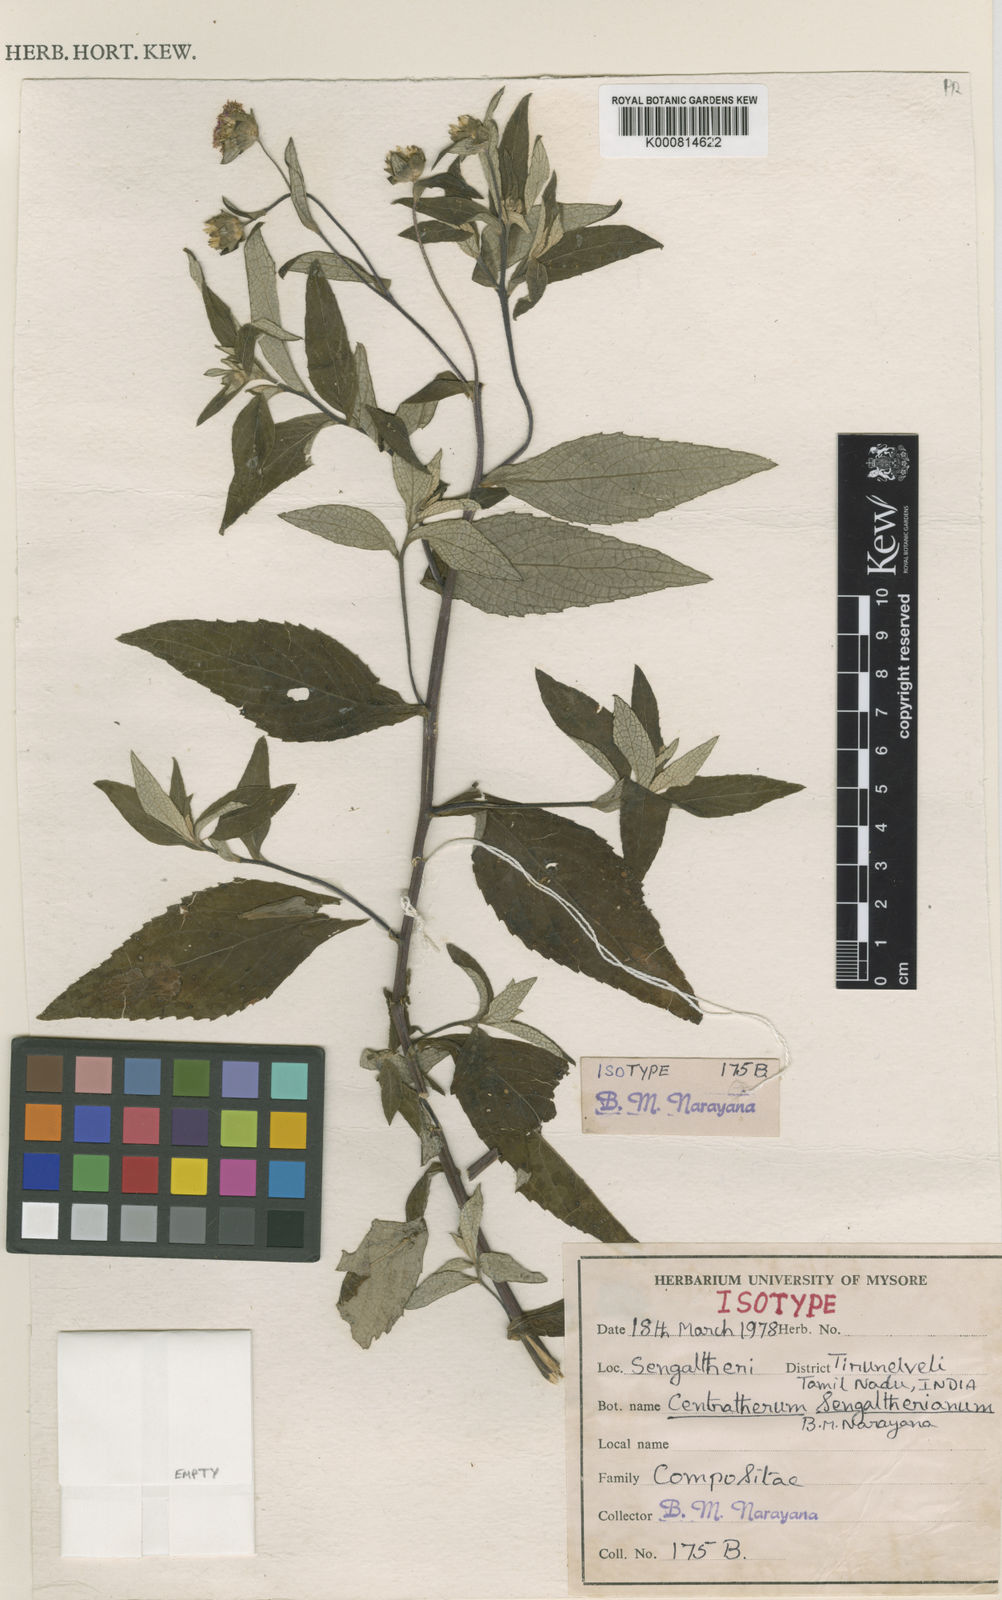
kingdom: Plantae
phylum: Tracheophyta
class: Magnoliopsida
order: Asterales
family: Asteraceae
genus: Phyllocephalum
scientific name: Phyllocephalum sengaltherianum
